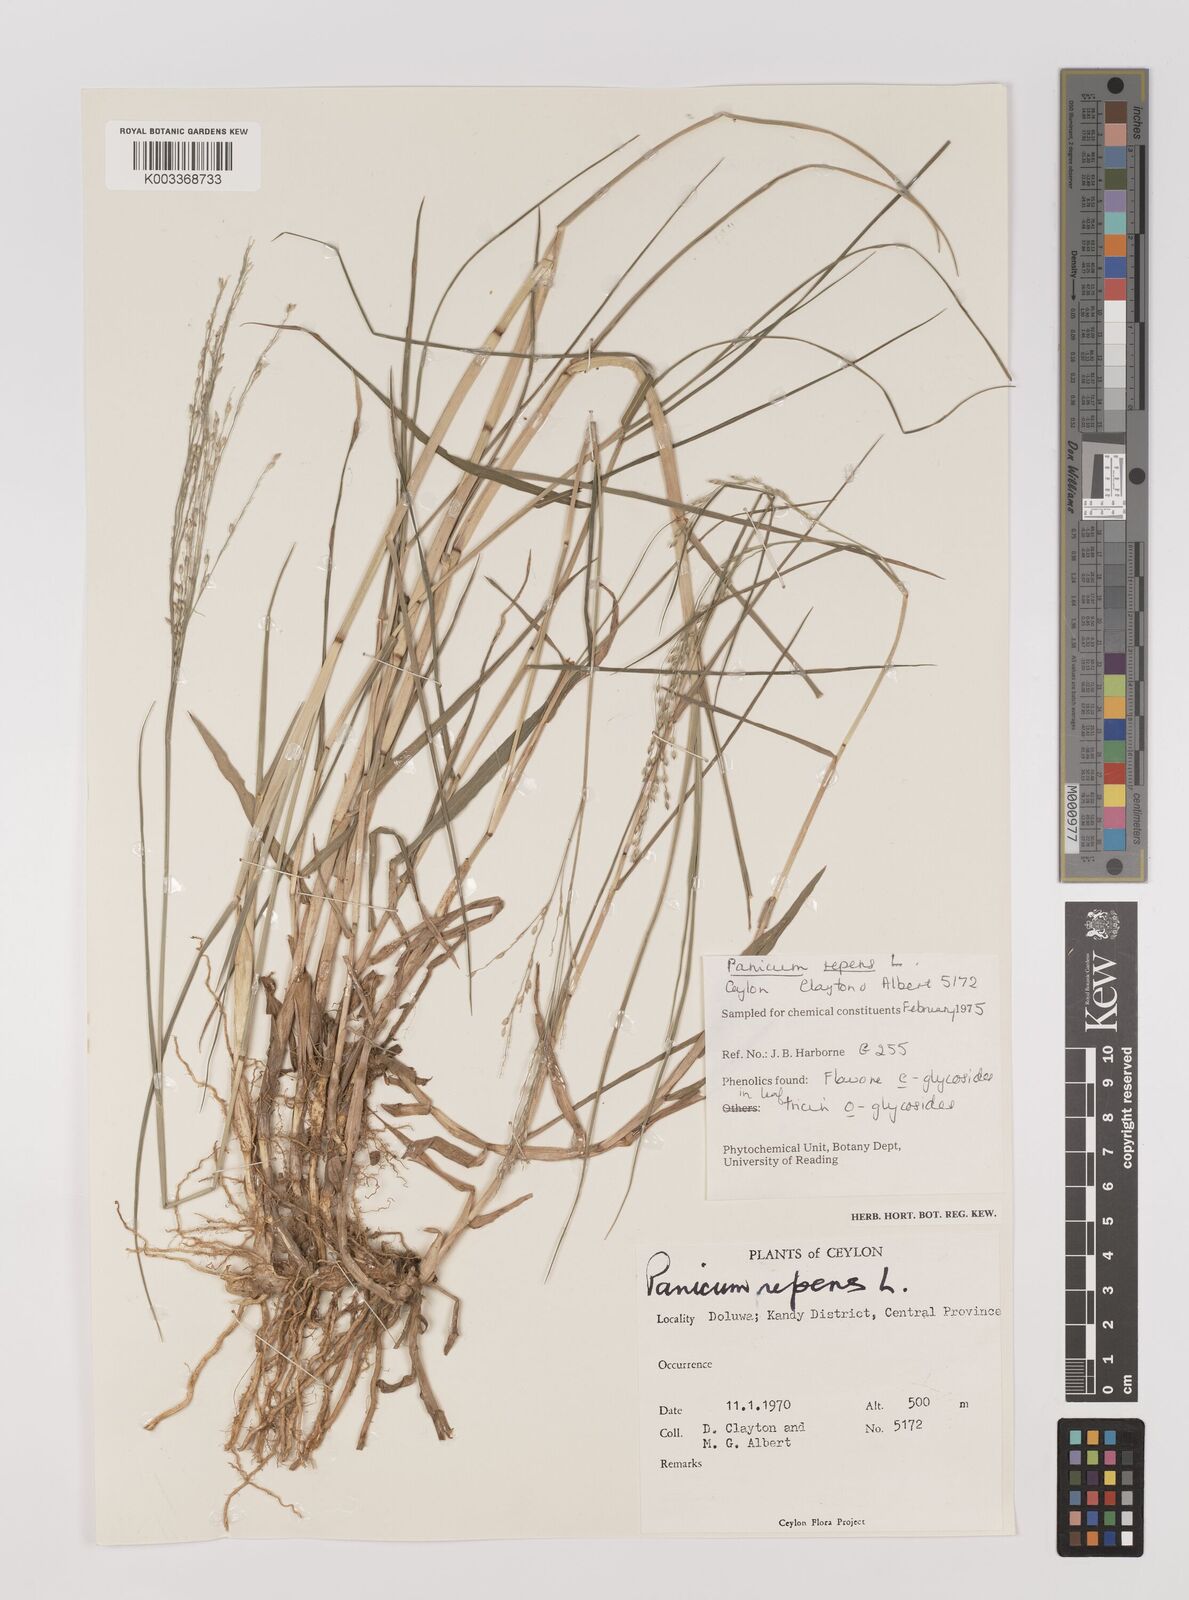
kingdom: Plantae
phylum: Tracheophyta
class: Liliopsida
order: Poales
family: Poaceae
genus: Panicum
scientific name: Panicum repens
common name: Torpedo grass
